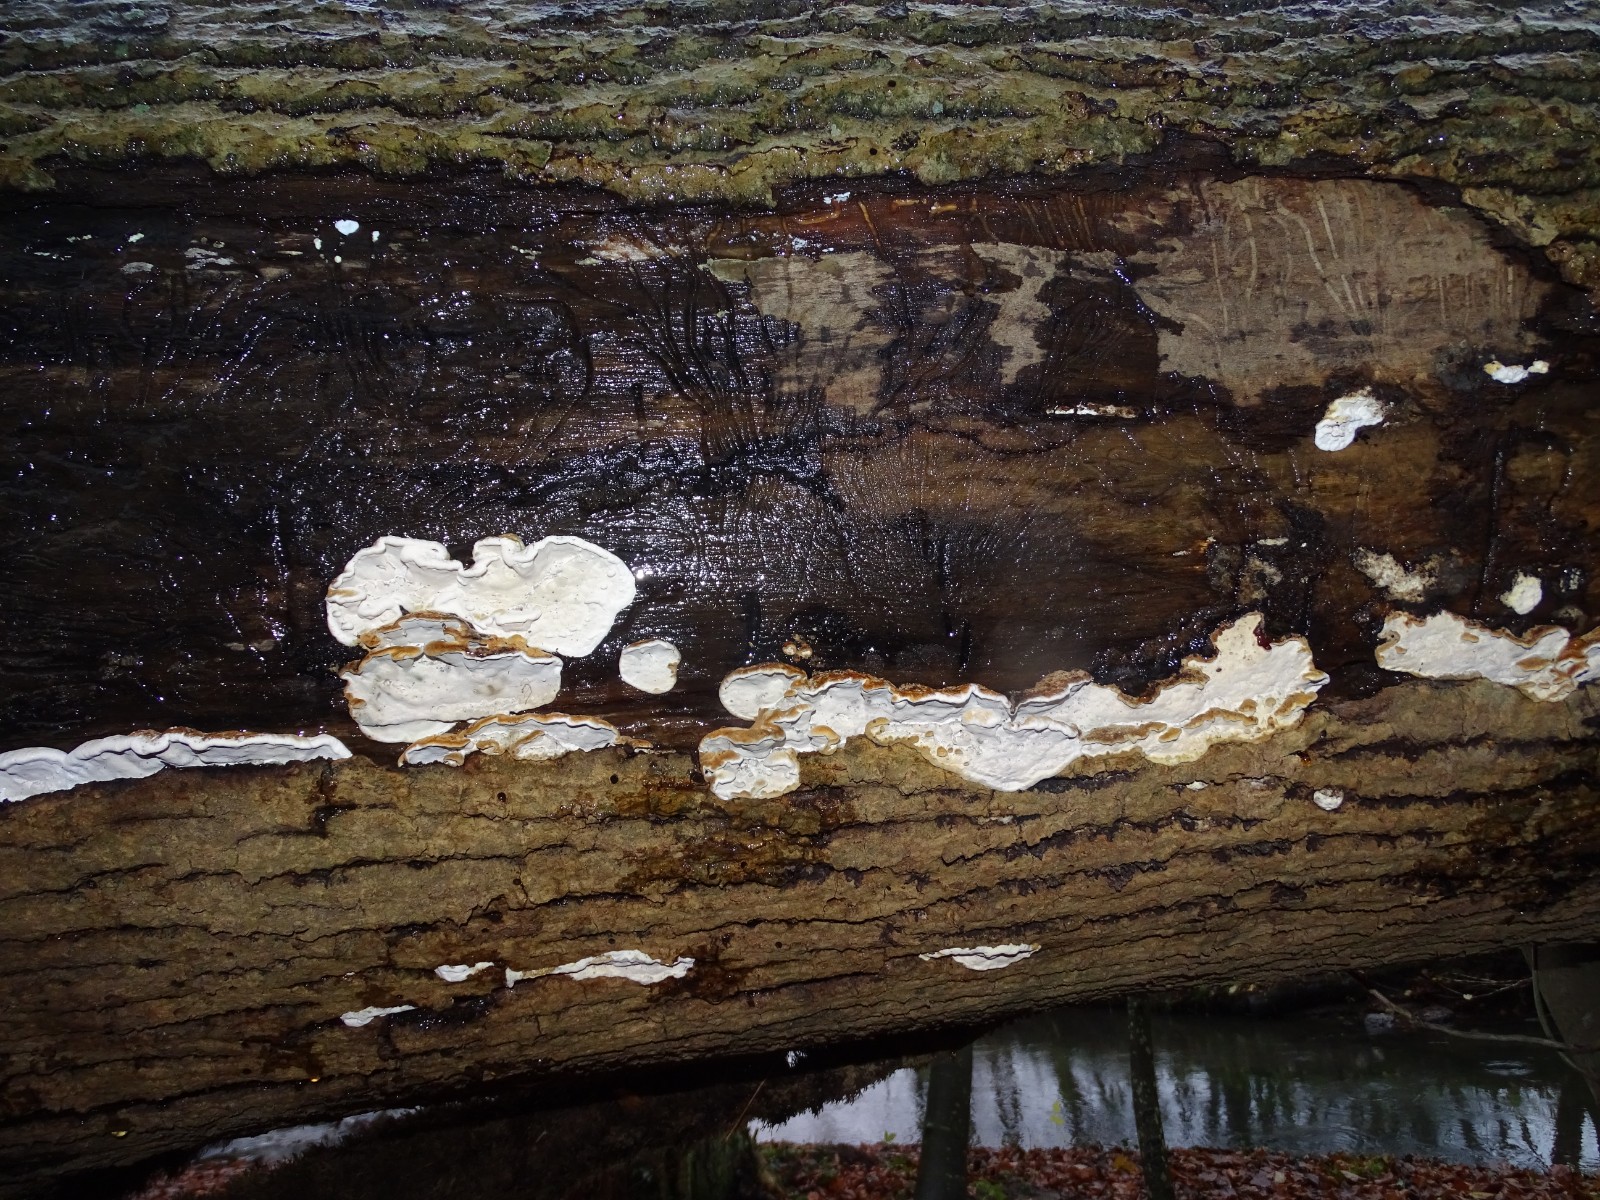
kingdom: Fungi
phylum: Basidiomycota
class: Agaricomycetes
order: Polyporales
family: Incrustoporiaceae
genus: Skeletocutis
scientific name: Skeletocutis nemoralis
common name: stor krystalporesvamp
